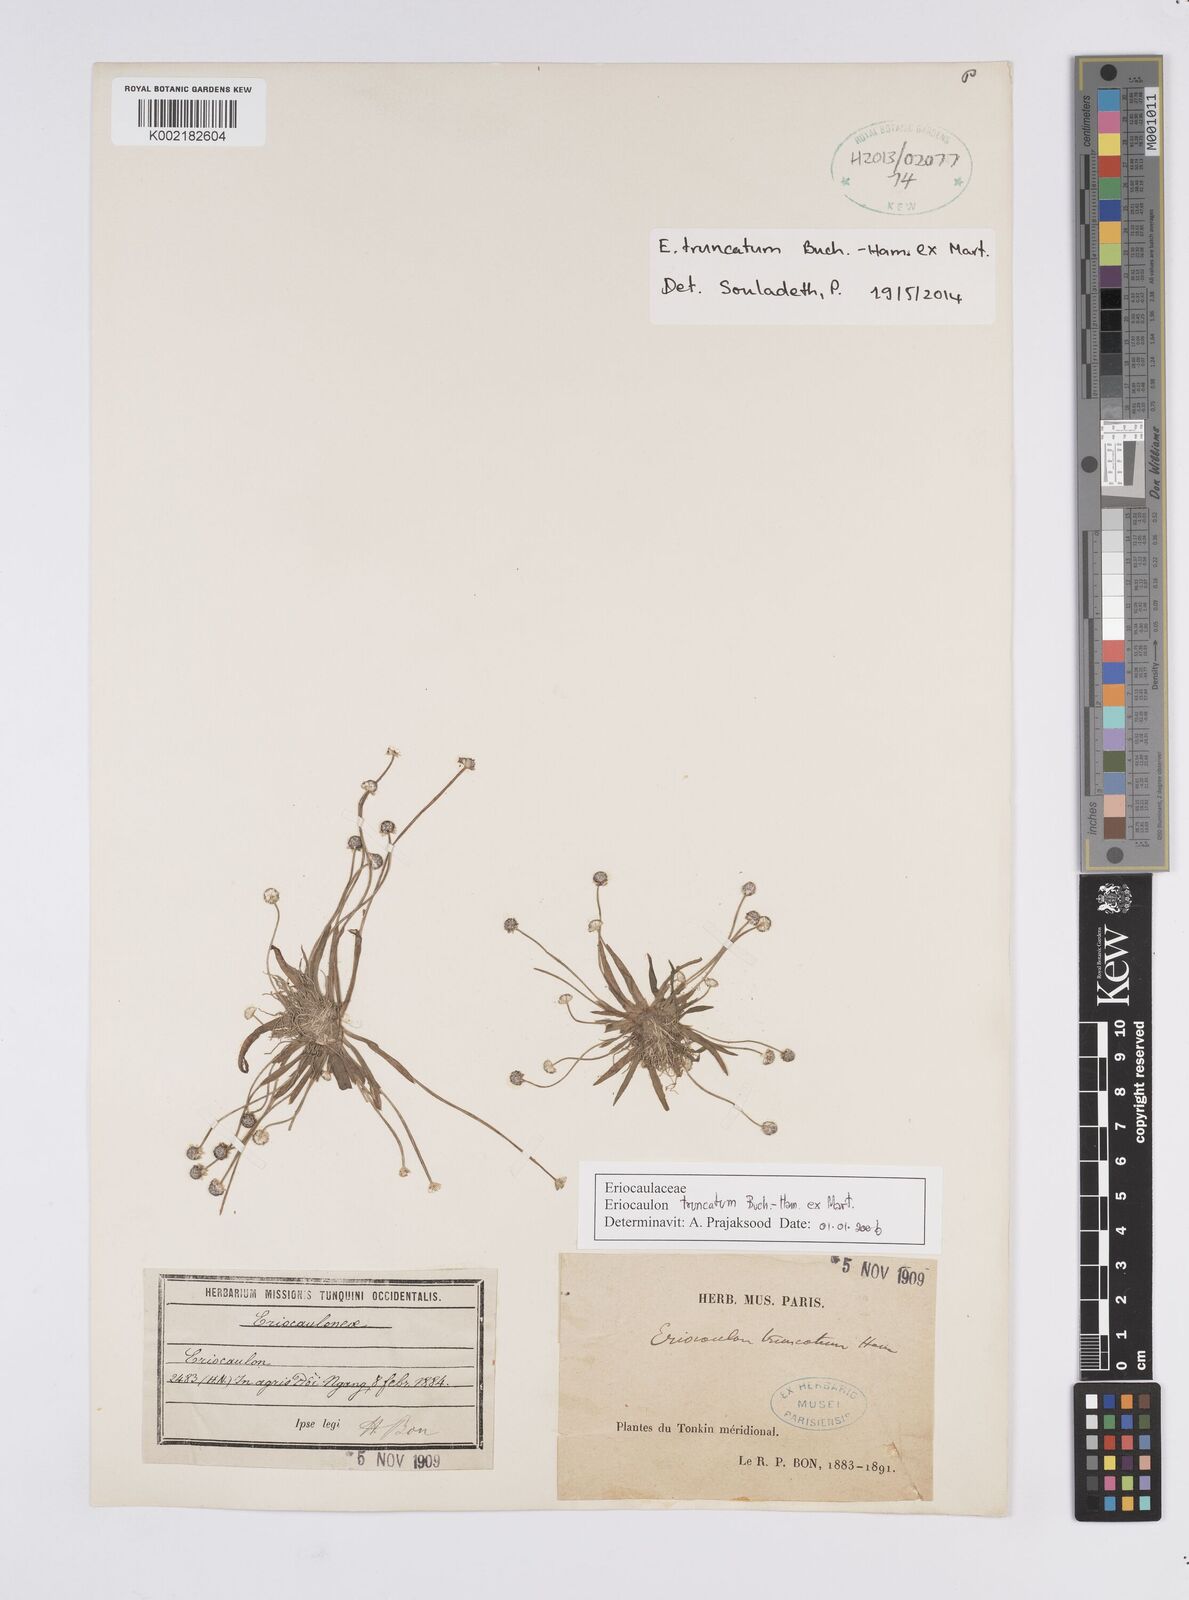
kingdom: Plantae
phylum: Tracheophyta
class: Liliopsida
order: Poales
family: Eriocaulaceae
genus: Eriocaulon
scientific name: Eriocaulon truncatum
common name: Short pipe-wort
